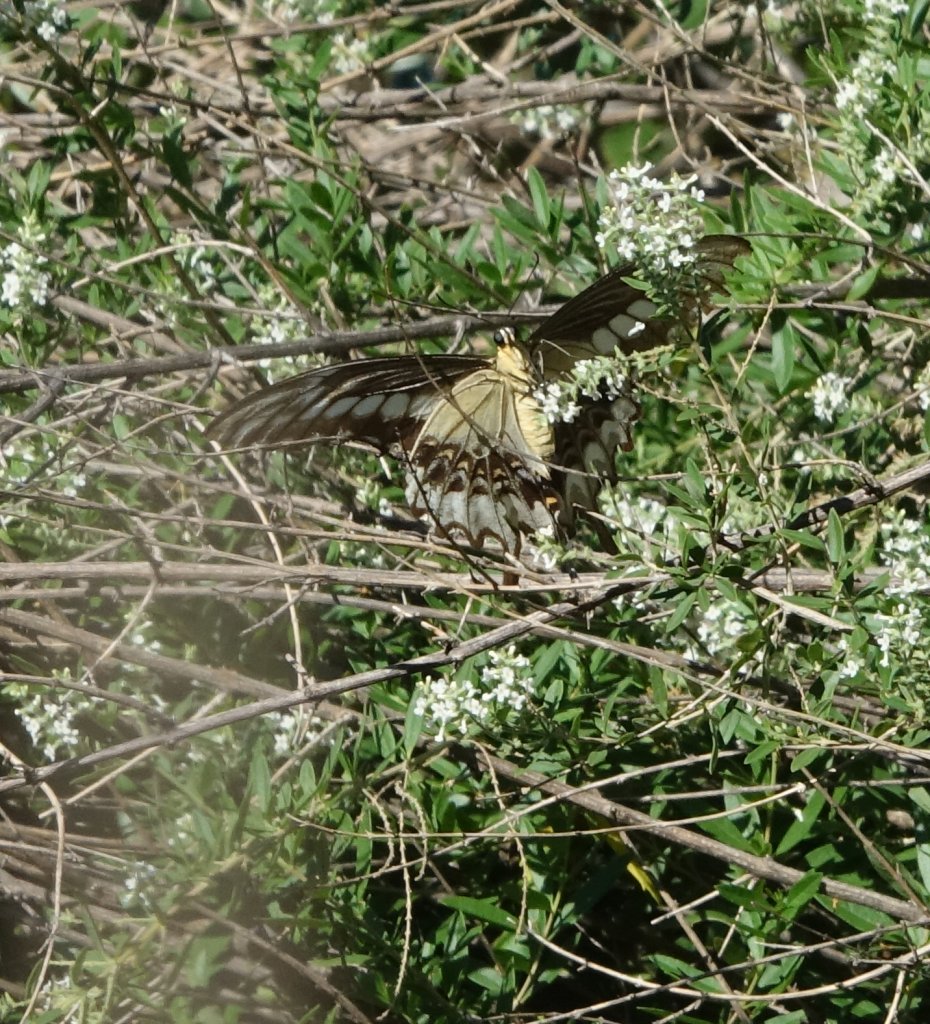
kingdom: Animalia
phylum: Arthropoda
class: Insecta
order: Lepidoptera
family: Papilionidae
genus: Papilio
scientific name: Papilio ornythion
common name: Ornythion Swallowtail
